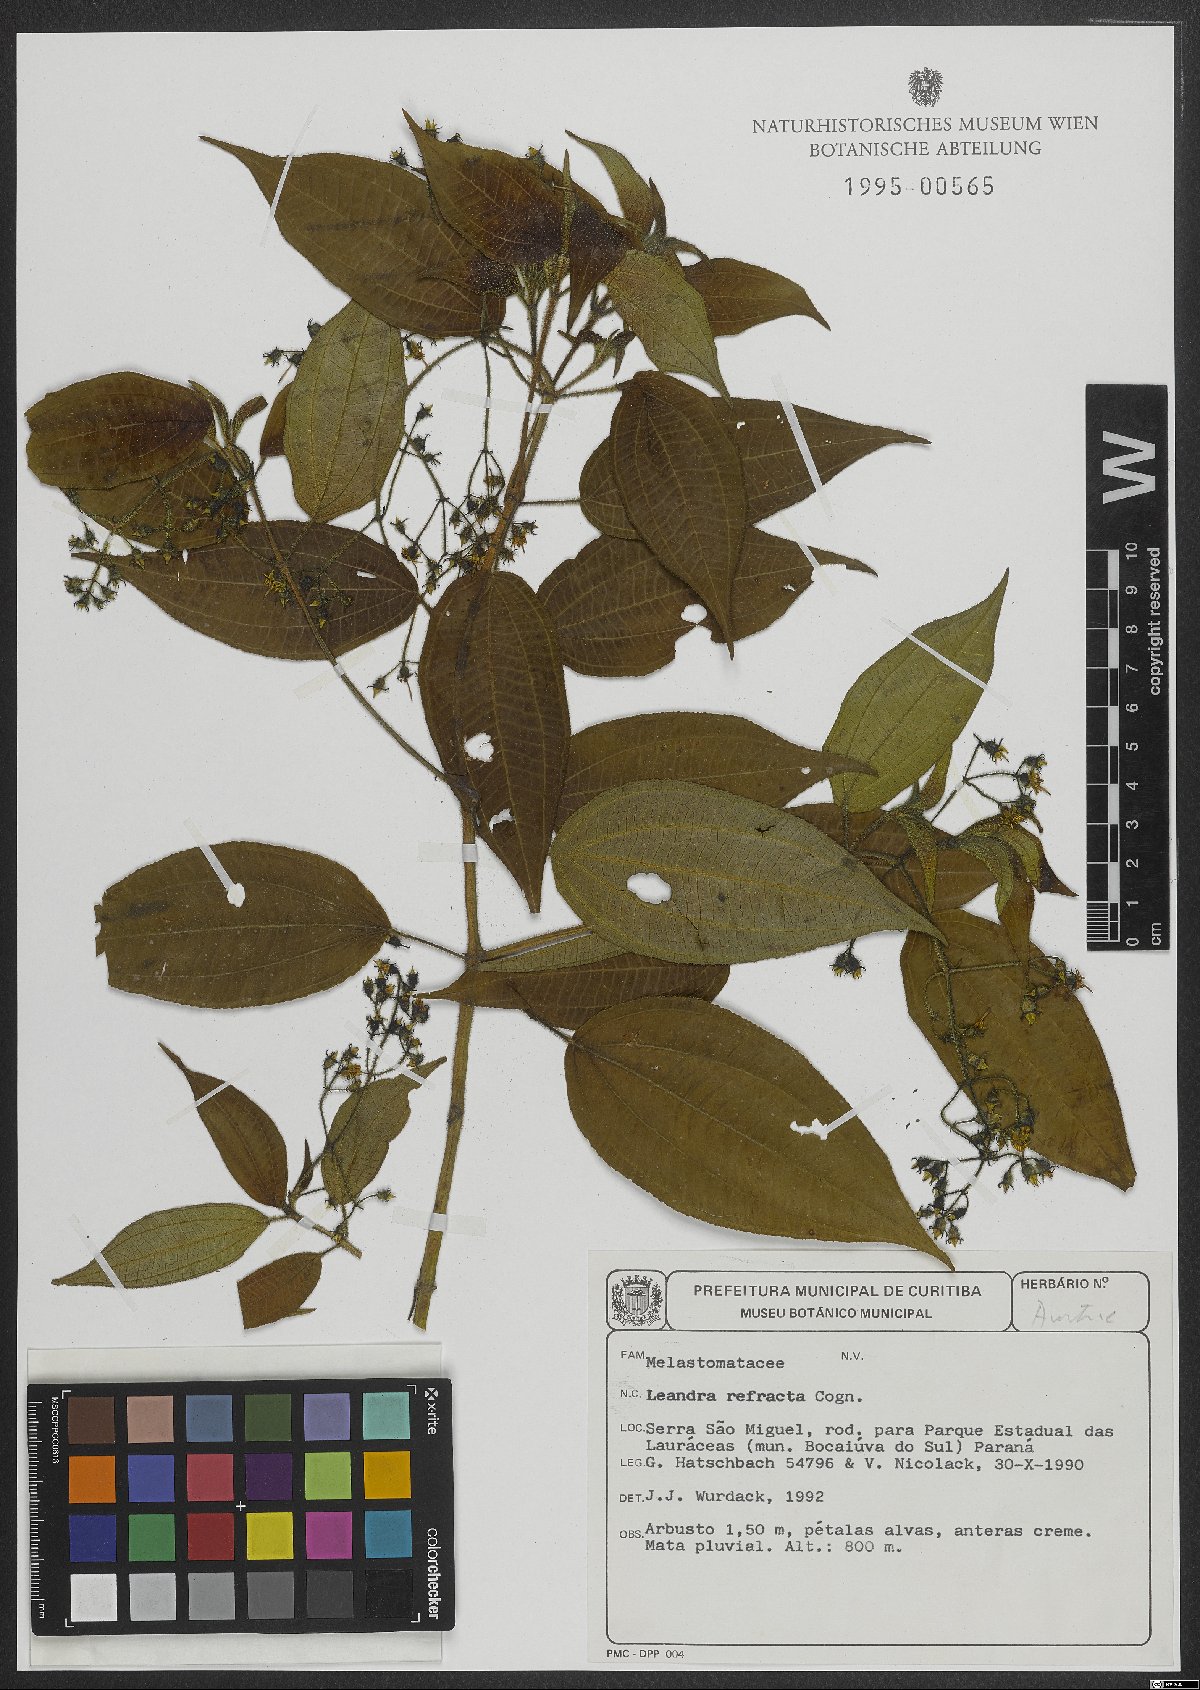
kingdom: Plantae
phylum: Tracheophyta
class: Magnoliopsida
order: Myrtales
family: Melastomataceae
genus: Miconia
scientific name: Miconia refracta
